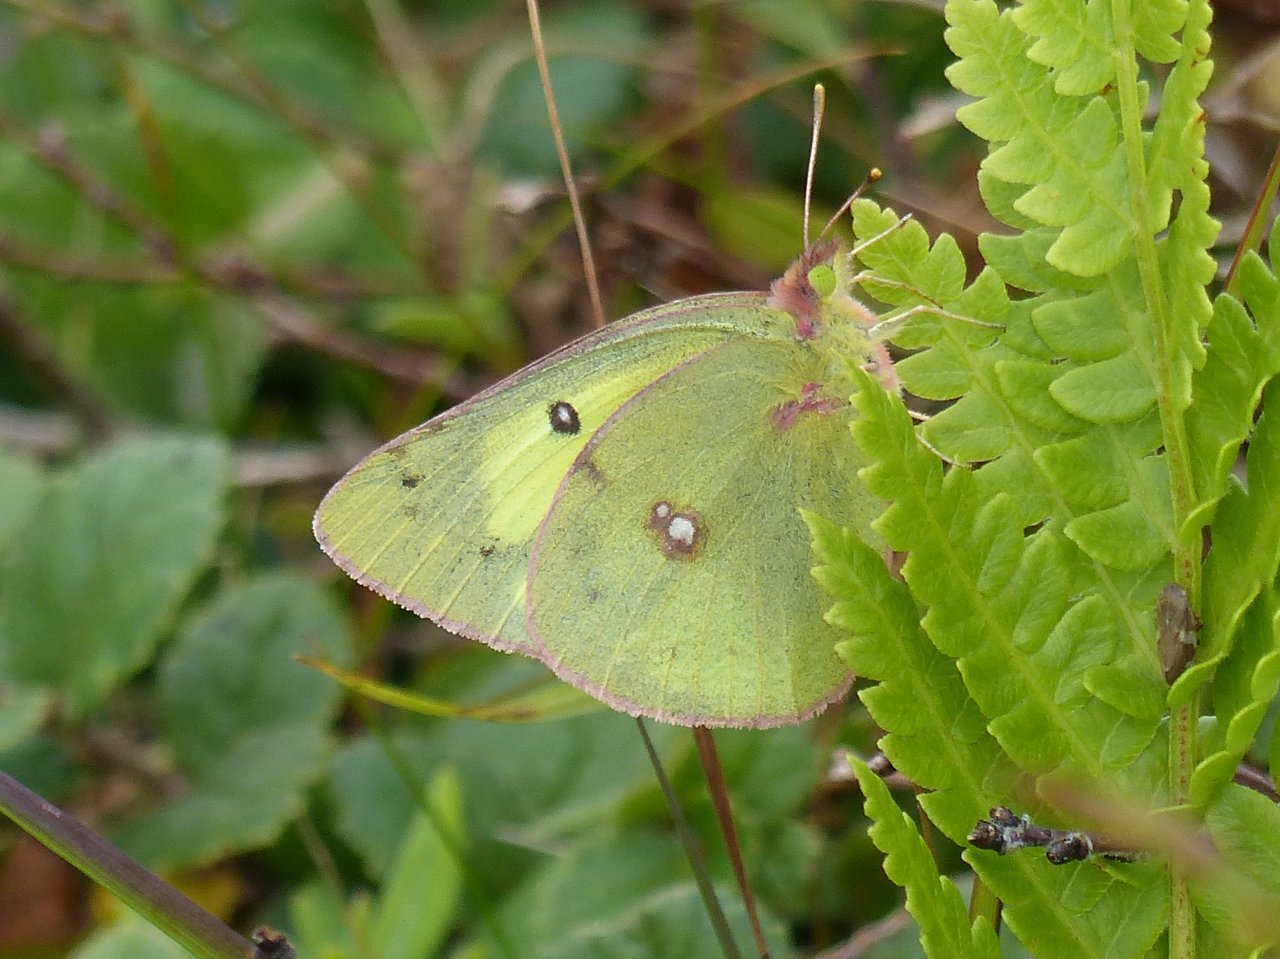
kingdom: Animalia
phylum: Arthropoda
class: Insecta
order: Lepidoptera
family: Pieridae
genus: Colias
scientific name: Colias philodice
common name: Clouded Sulphur
